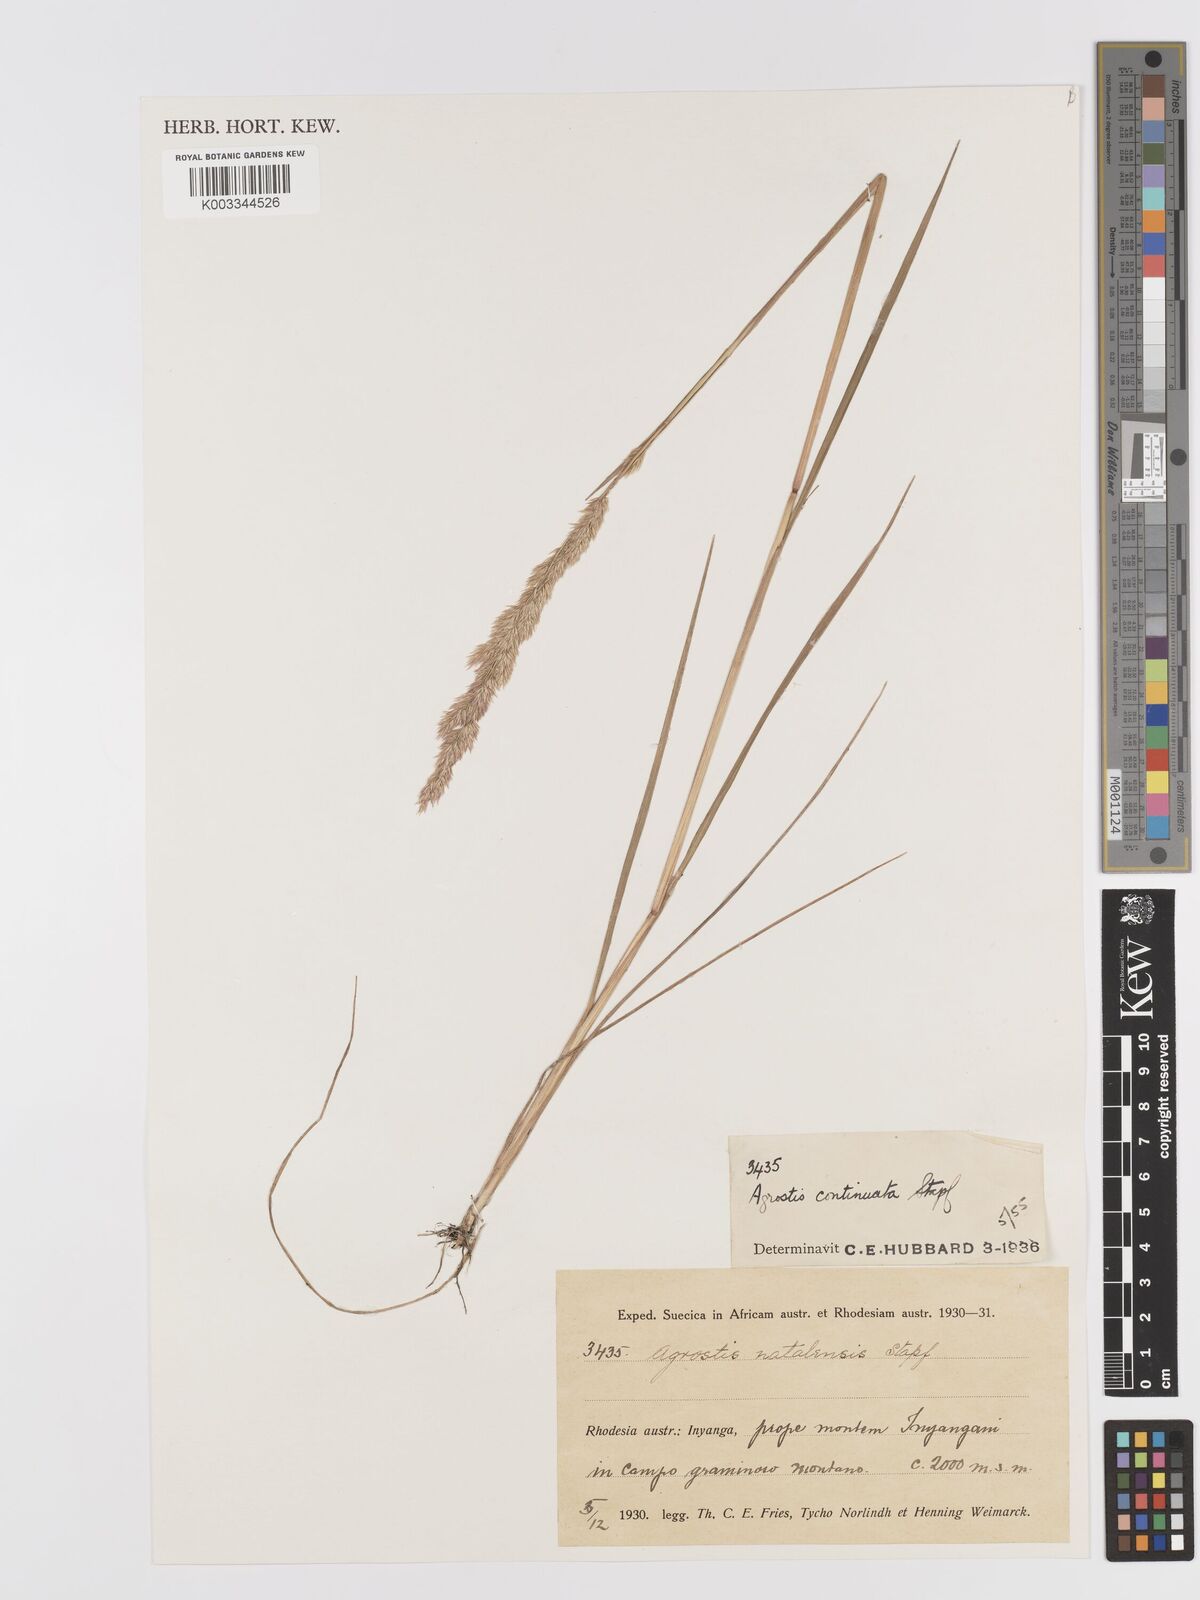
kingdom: Plantae
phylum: Tracheophyta
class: Liliopsida
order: Poales
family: Poaceae
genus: Agrostis
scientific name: Agrostis continuata
